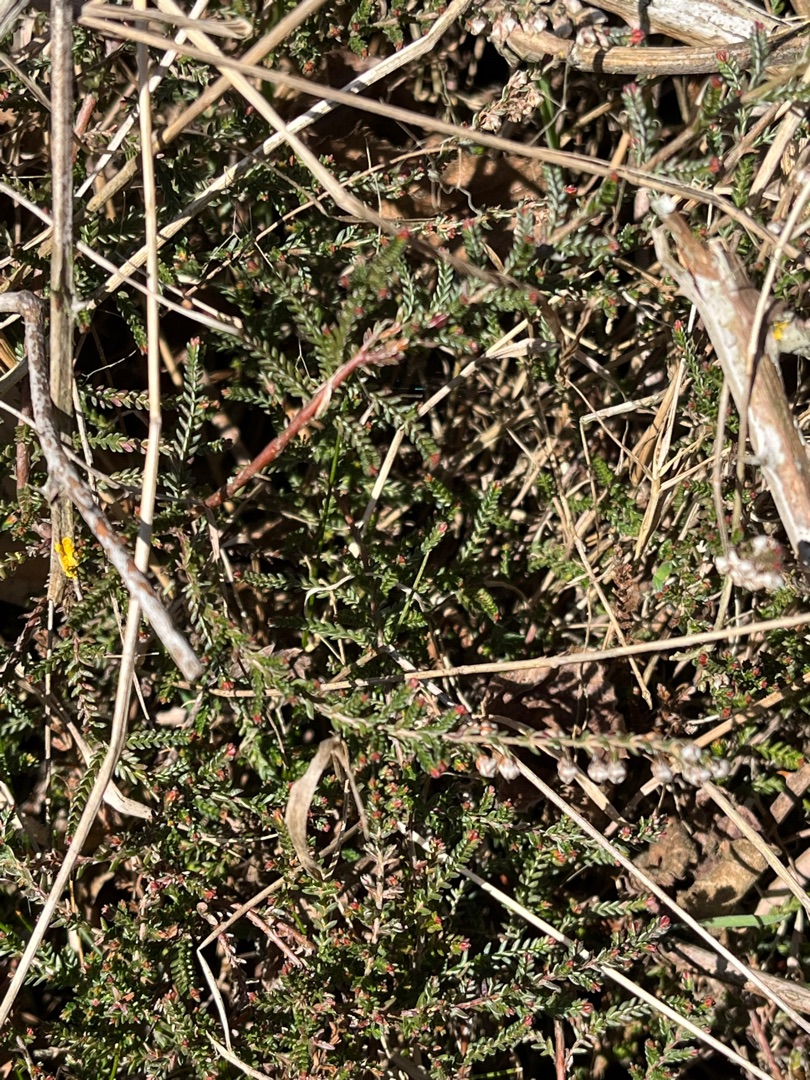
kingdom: Plantae
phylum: Tracheophyta
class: Magnoliopsida
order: Ericales
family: Ericaceae
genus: Calluna
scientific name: Calluna vulgaris
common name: Hedelyng
